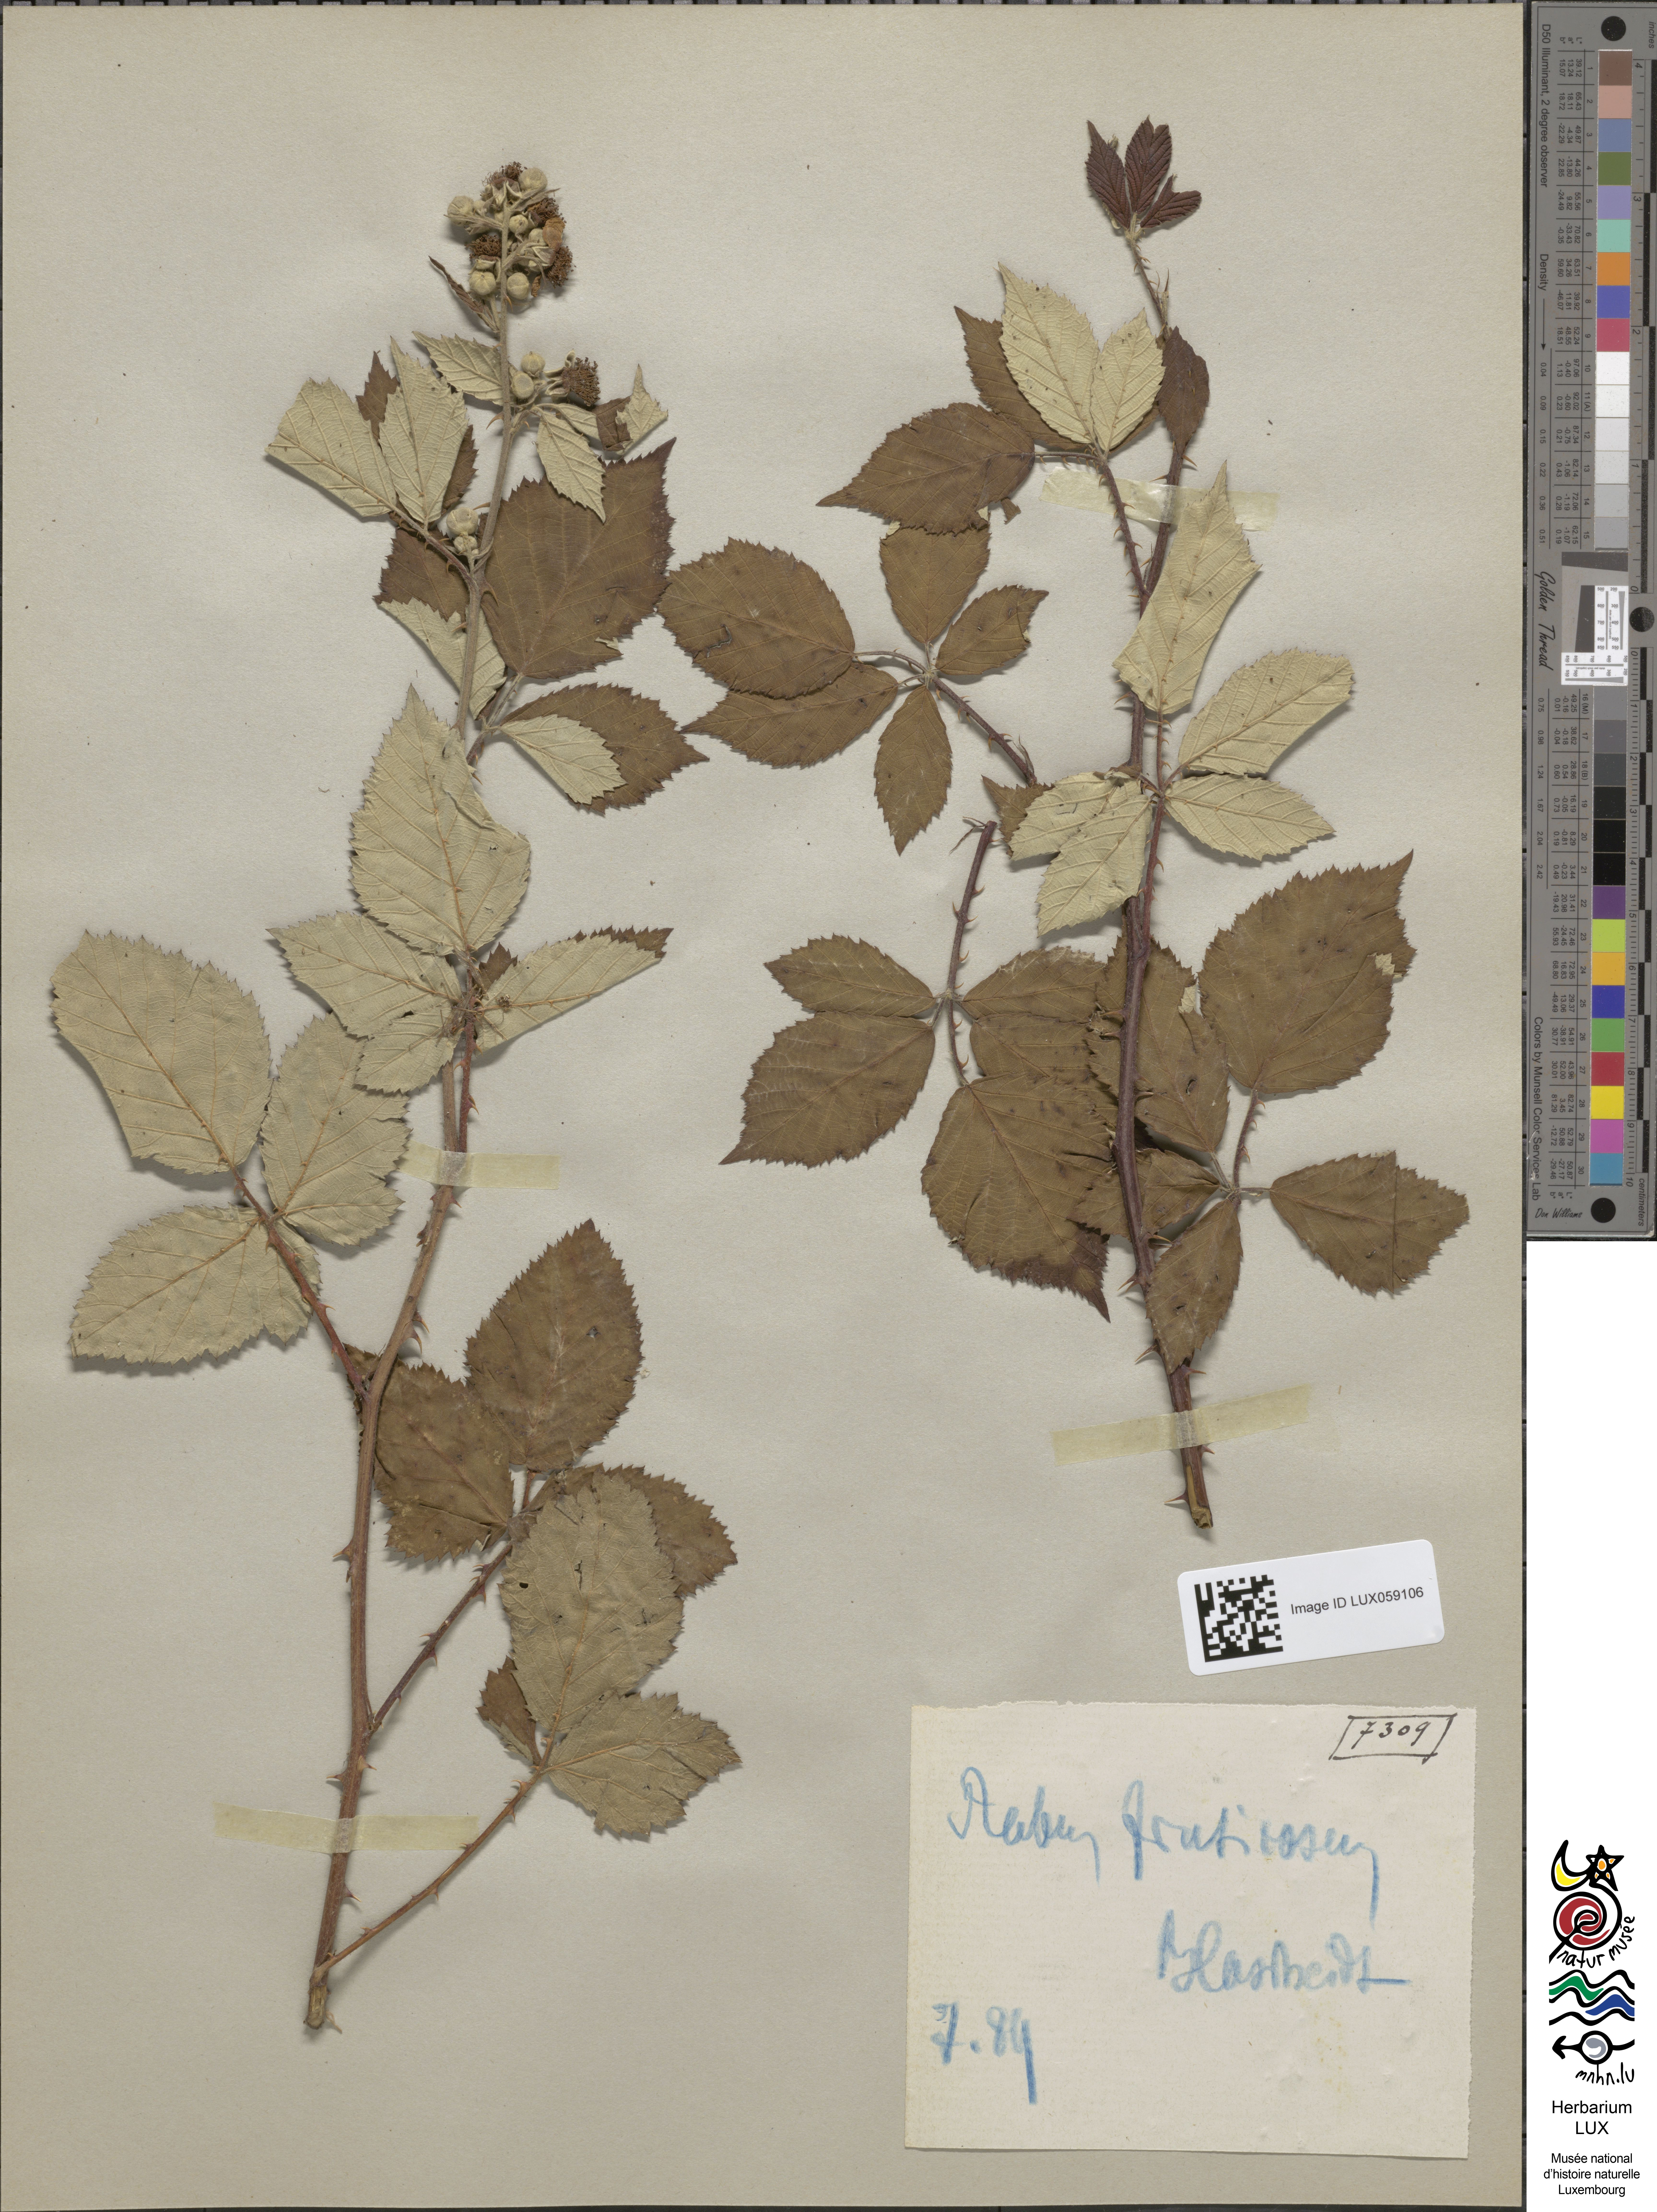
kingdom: Plantae
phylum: Tracheophyta
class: Magnoliopsida
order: Rosales
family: Rosaceae
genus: Rubus
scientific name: Rubus fruticosus
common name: Blackberry, bramble
